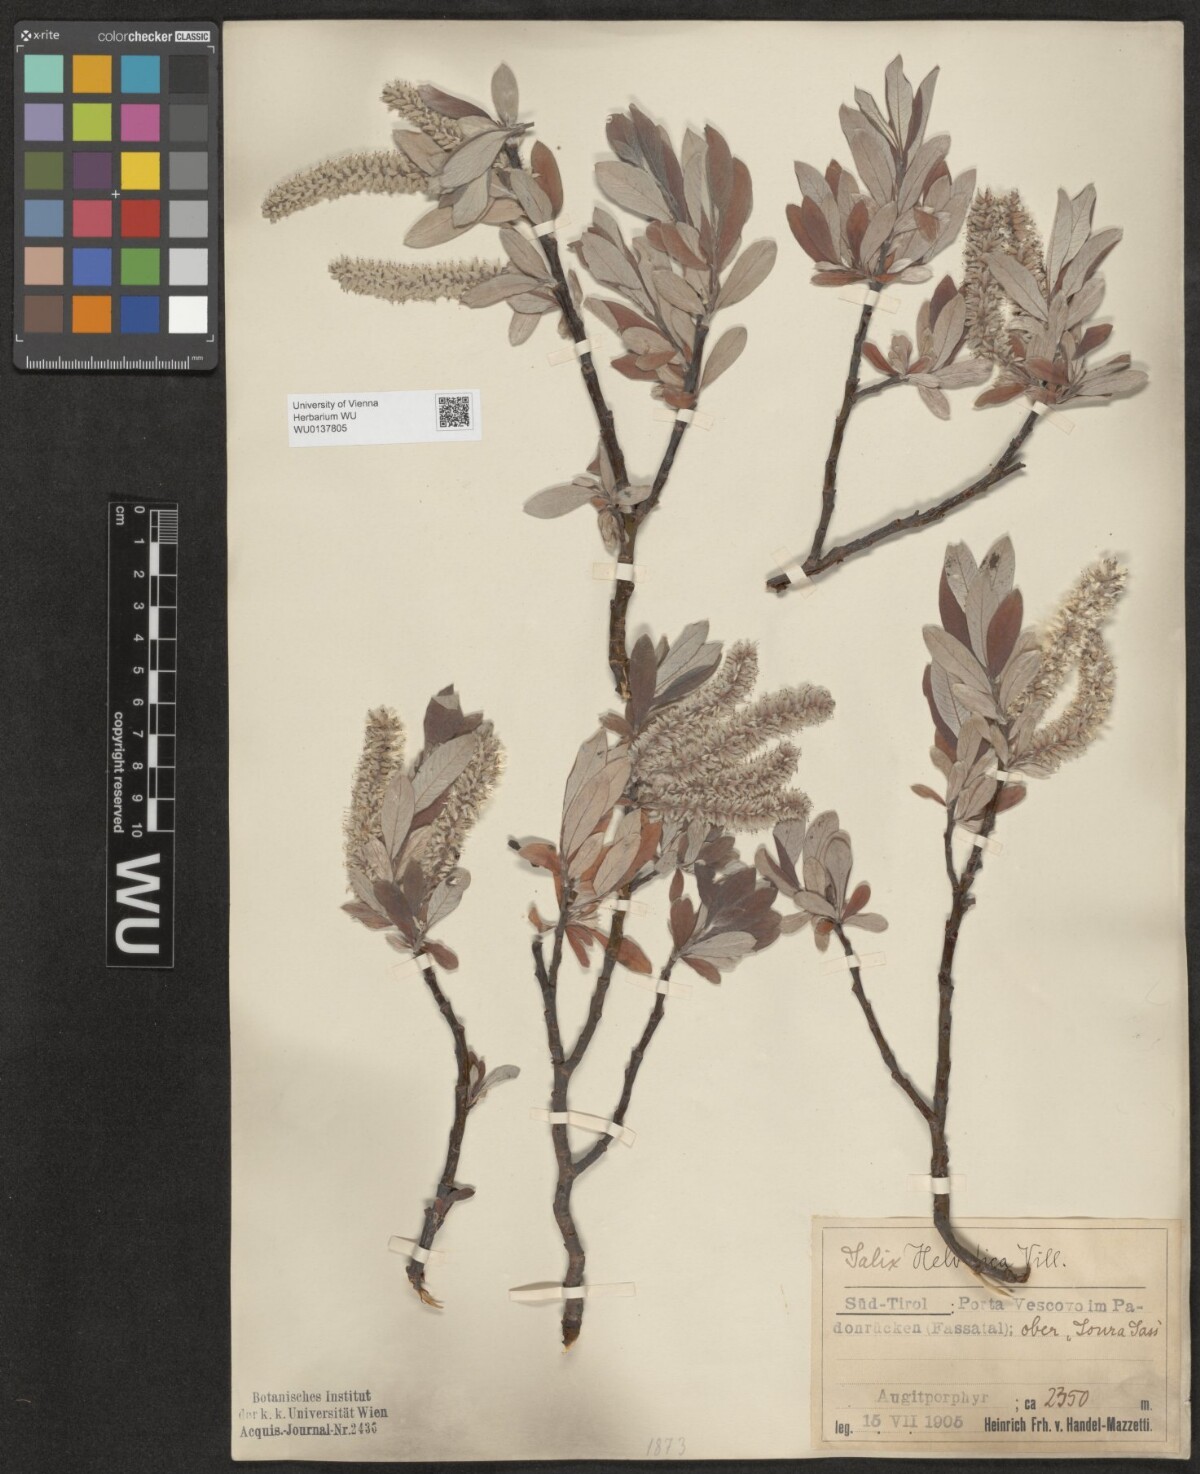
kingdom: Plantae
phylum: Tracheophyta
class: Magnoliopsida
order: Malpighiales
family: Salicaceae
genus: Salix
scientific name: Salix helvetica
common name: Swiss willow
